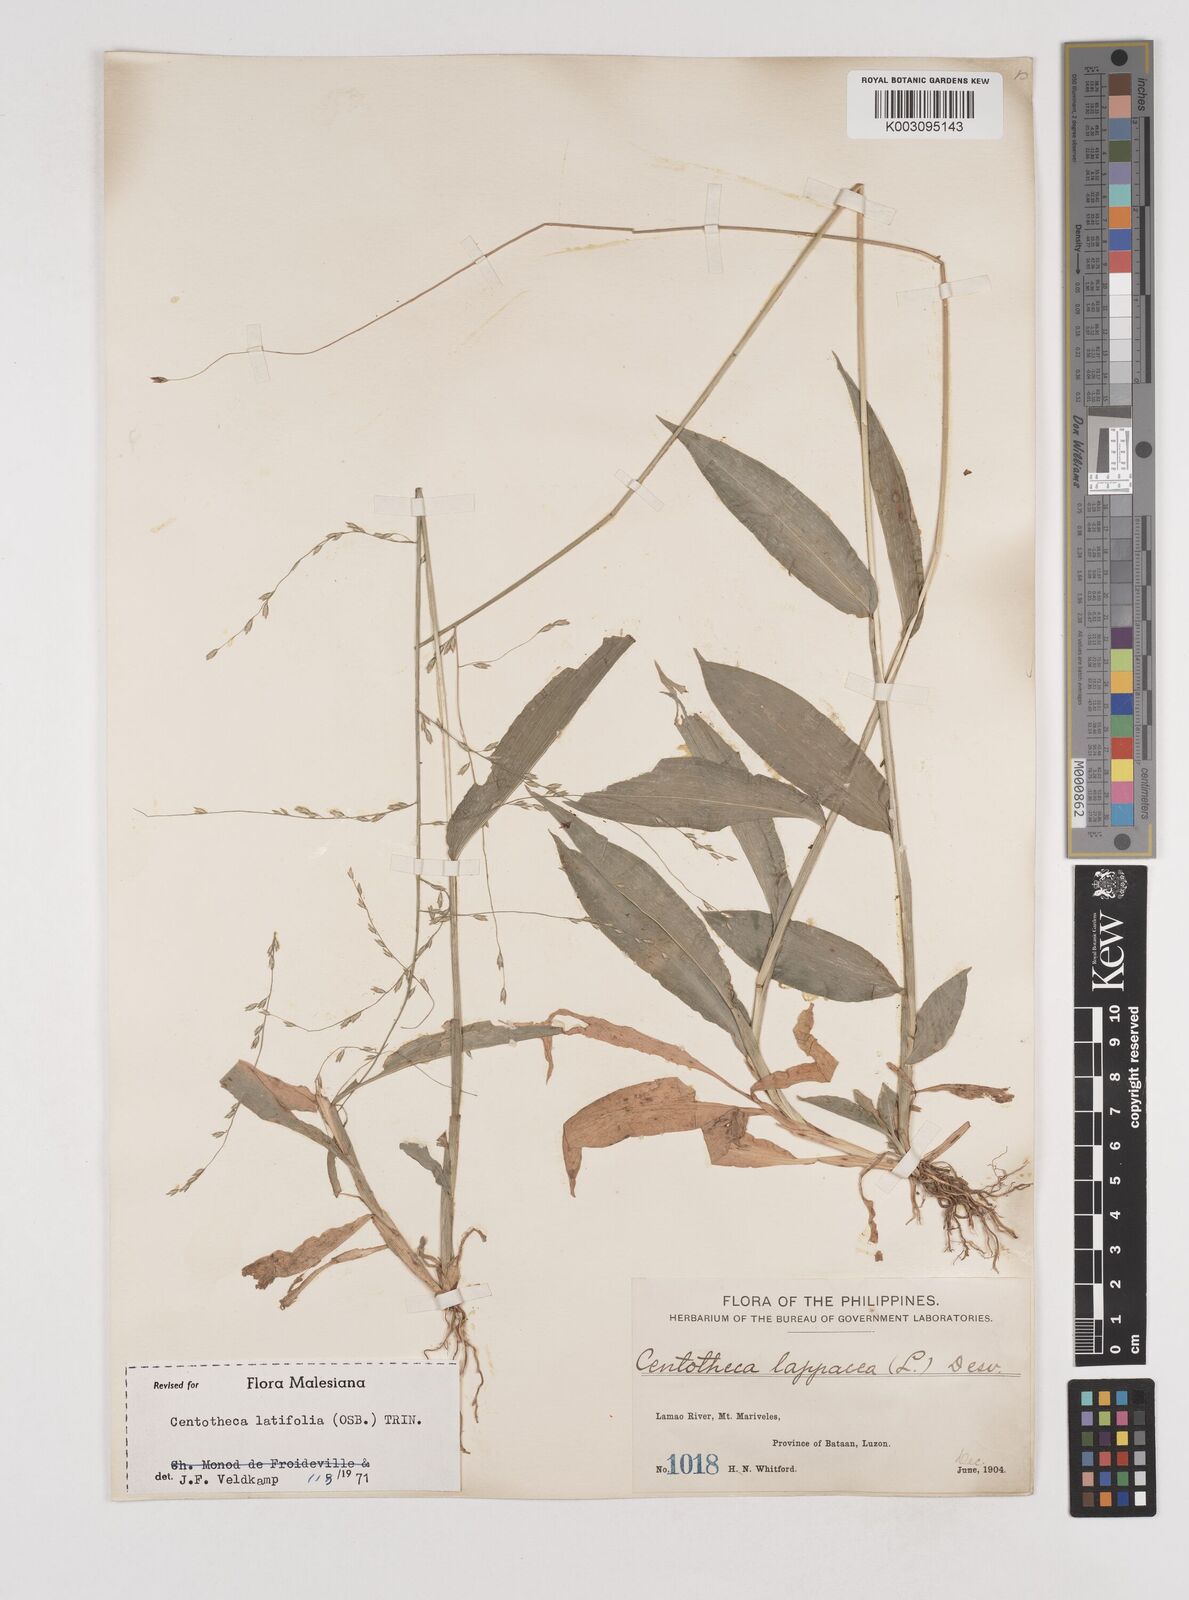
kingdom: Plantae
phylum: Tracheophyta
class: Liliopsida
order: Poales
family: Poaceae
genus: Centotheca
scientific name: Centotheca lappacea
